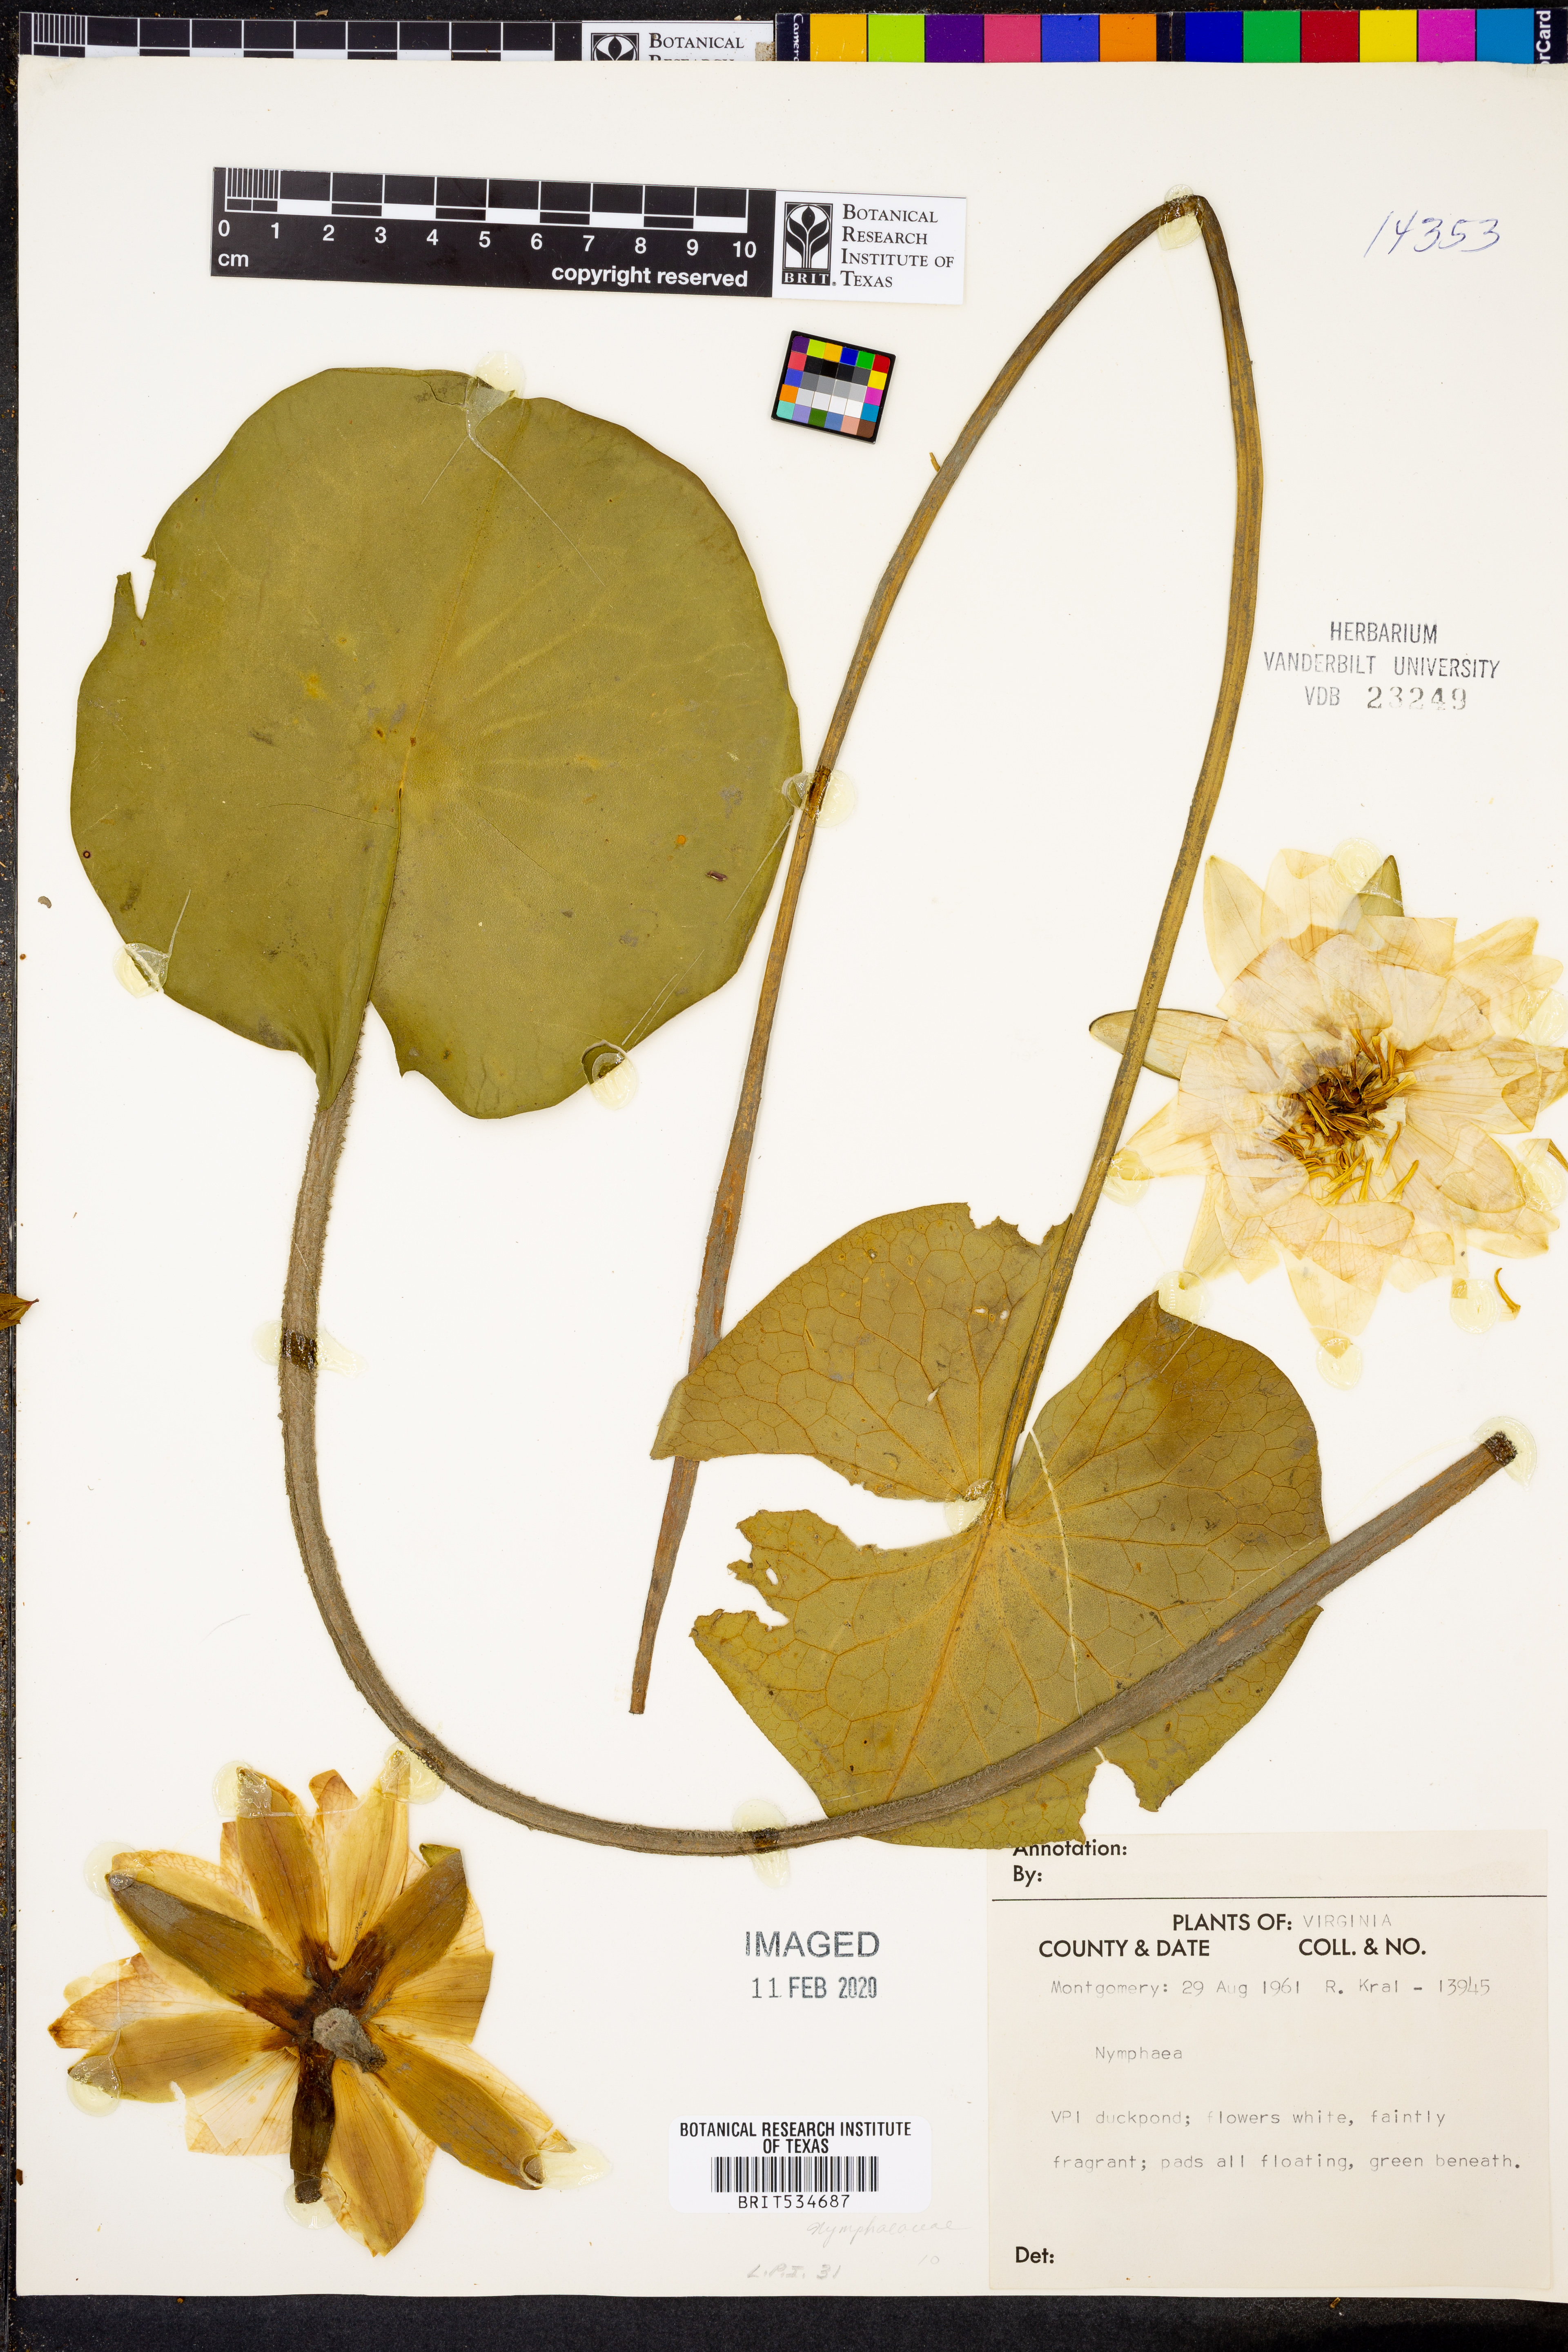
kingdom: Plantae
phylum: Tracheophyta
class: Magnoliopsida
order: Nymphaeales
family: Nymphaeaceae
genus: Nymphaea
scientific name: Nymphaea
